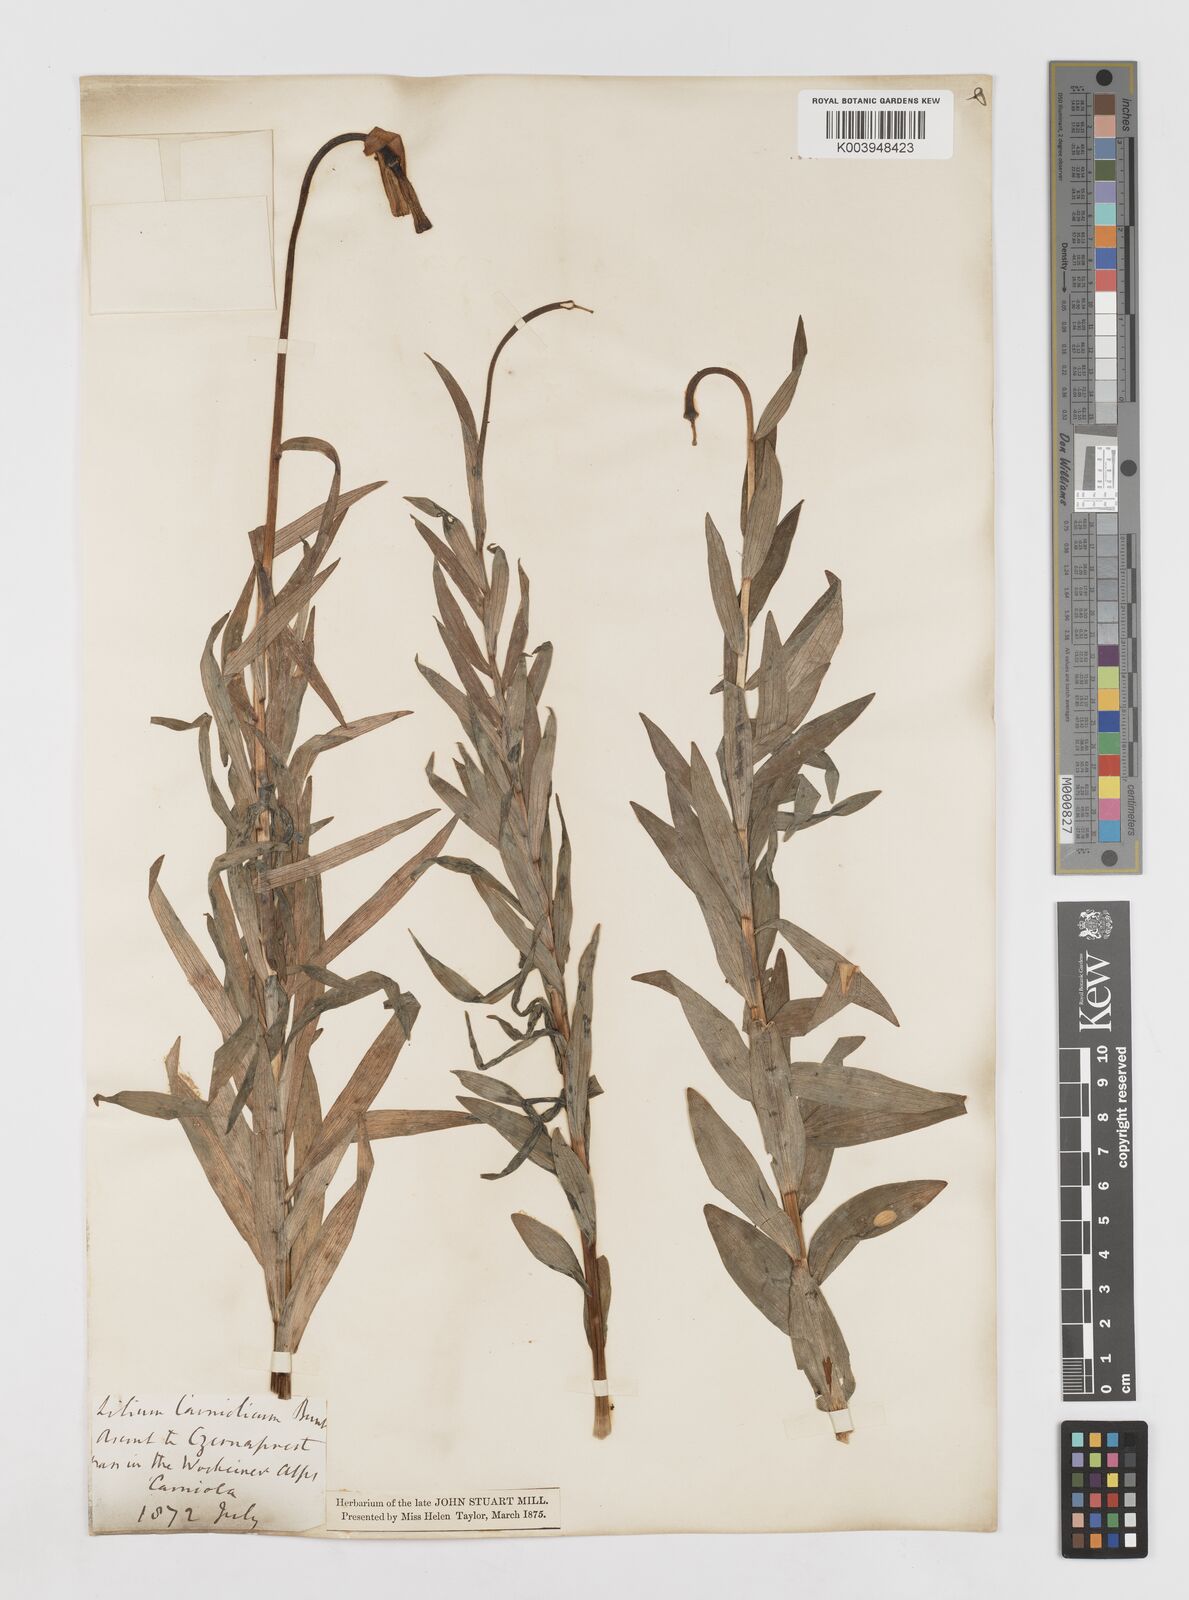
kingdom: Plantae
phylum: Tracheophyta
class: Liliopsida
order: Liliales
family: Liliaceae
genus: Lilium
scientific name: Lilium carniolicum
